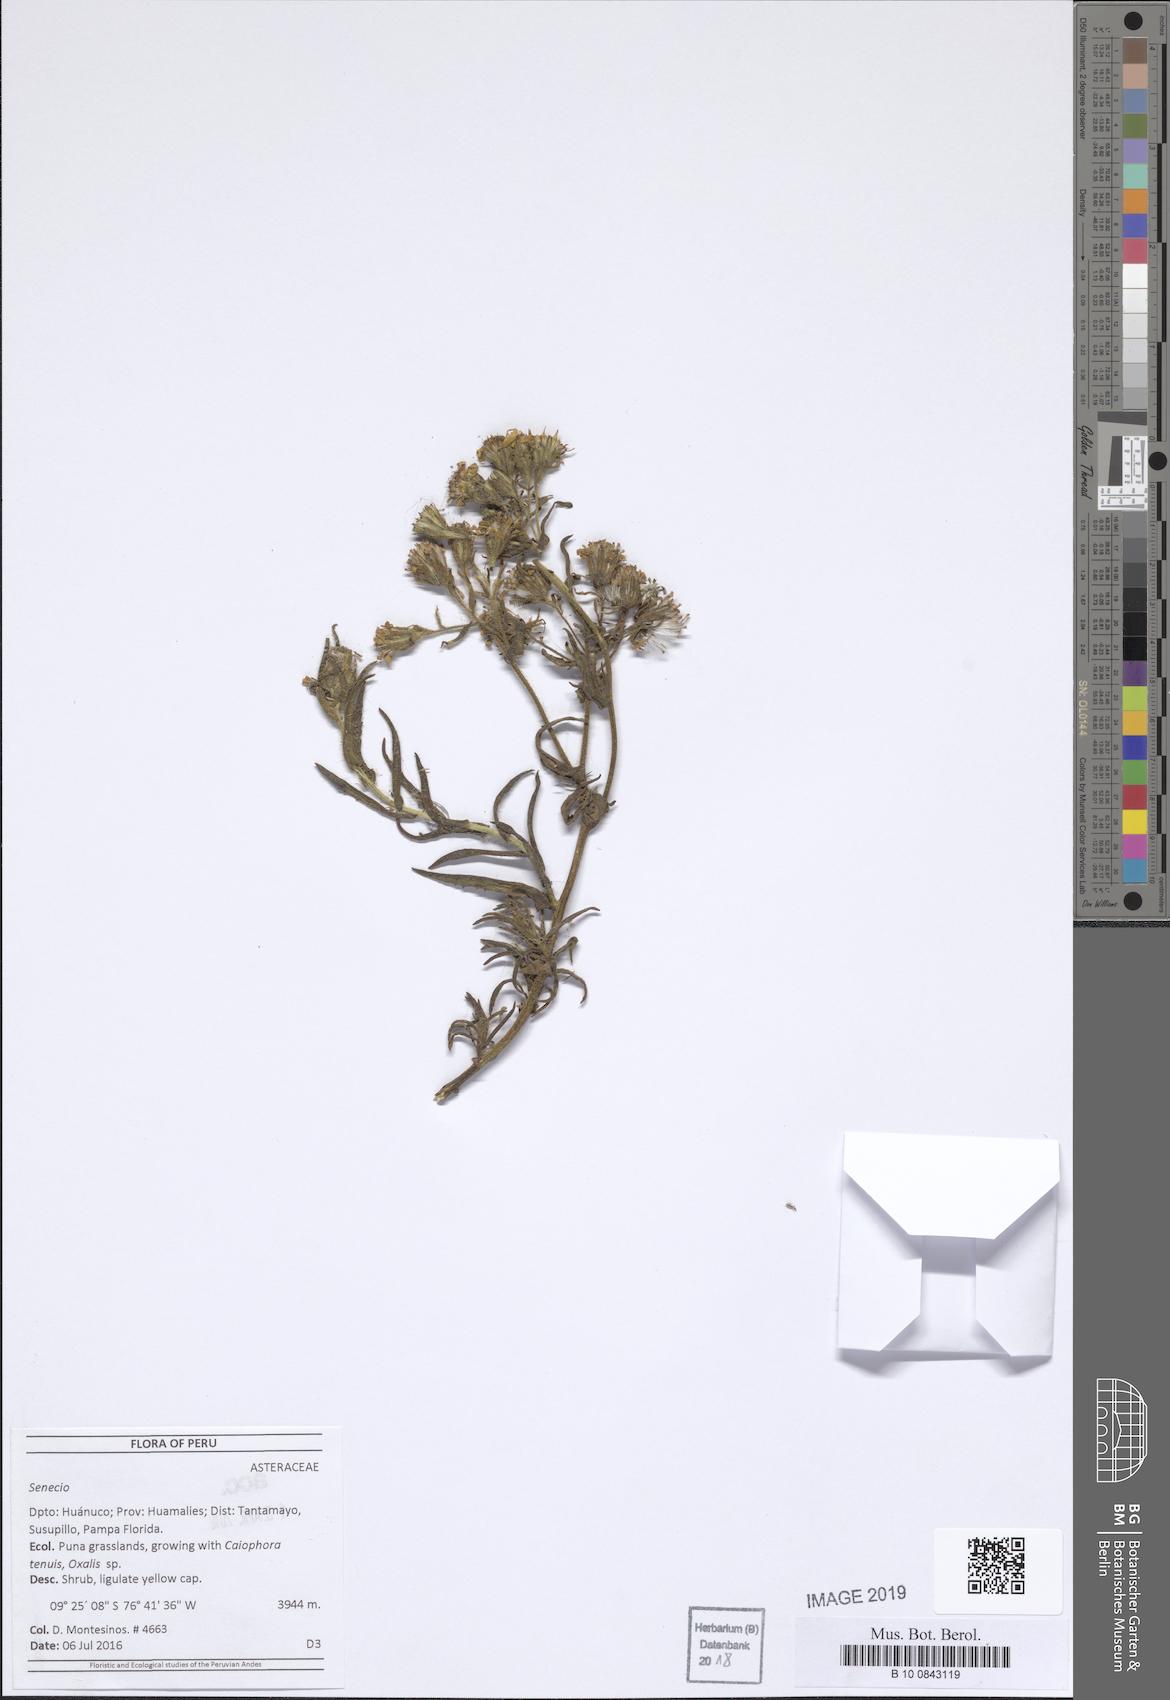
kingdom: Plantae
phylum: Tracheophyta
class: Magnoliopsida
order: Asterales
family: Asteraceae
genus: Senecio
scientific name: Senecio chiquianensis
